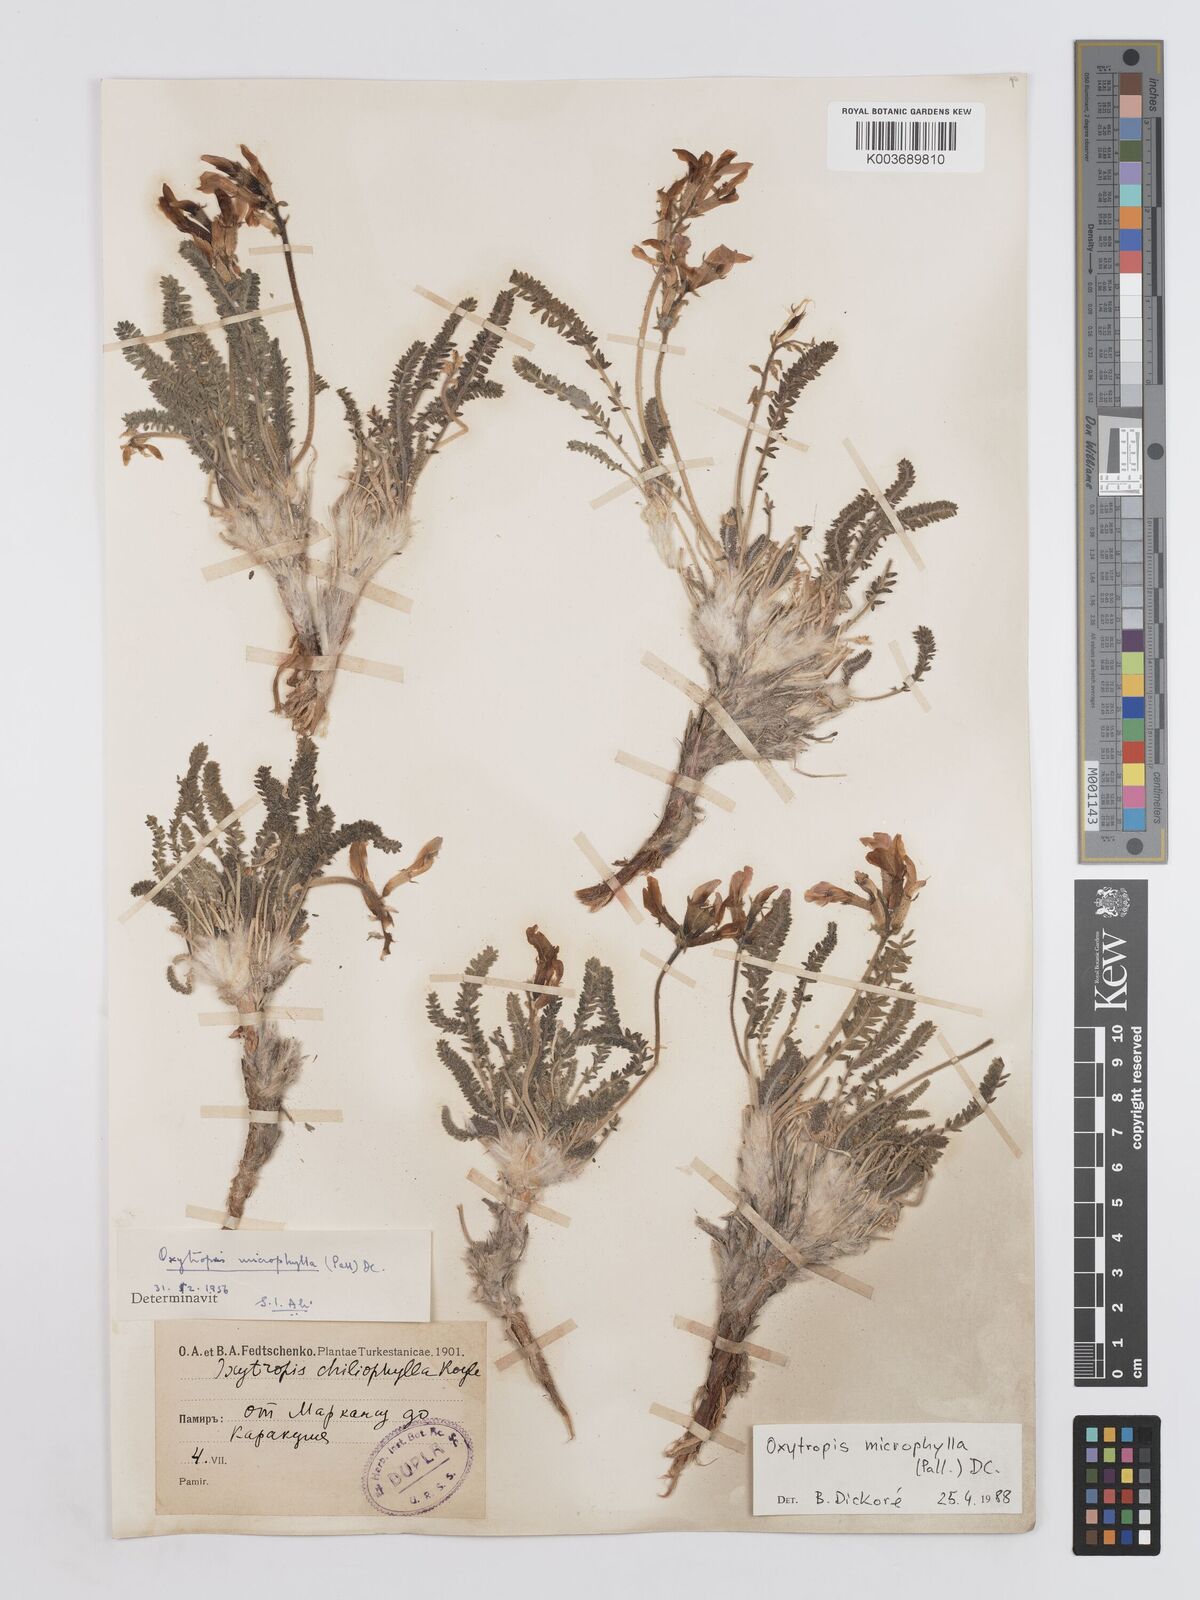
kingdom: Plantae
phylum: Tracheophyta
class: Magnoliopsida
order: Fabales
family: Fabaceae
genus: Oxytropis
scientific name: Oxytropis microphylla
